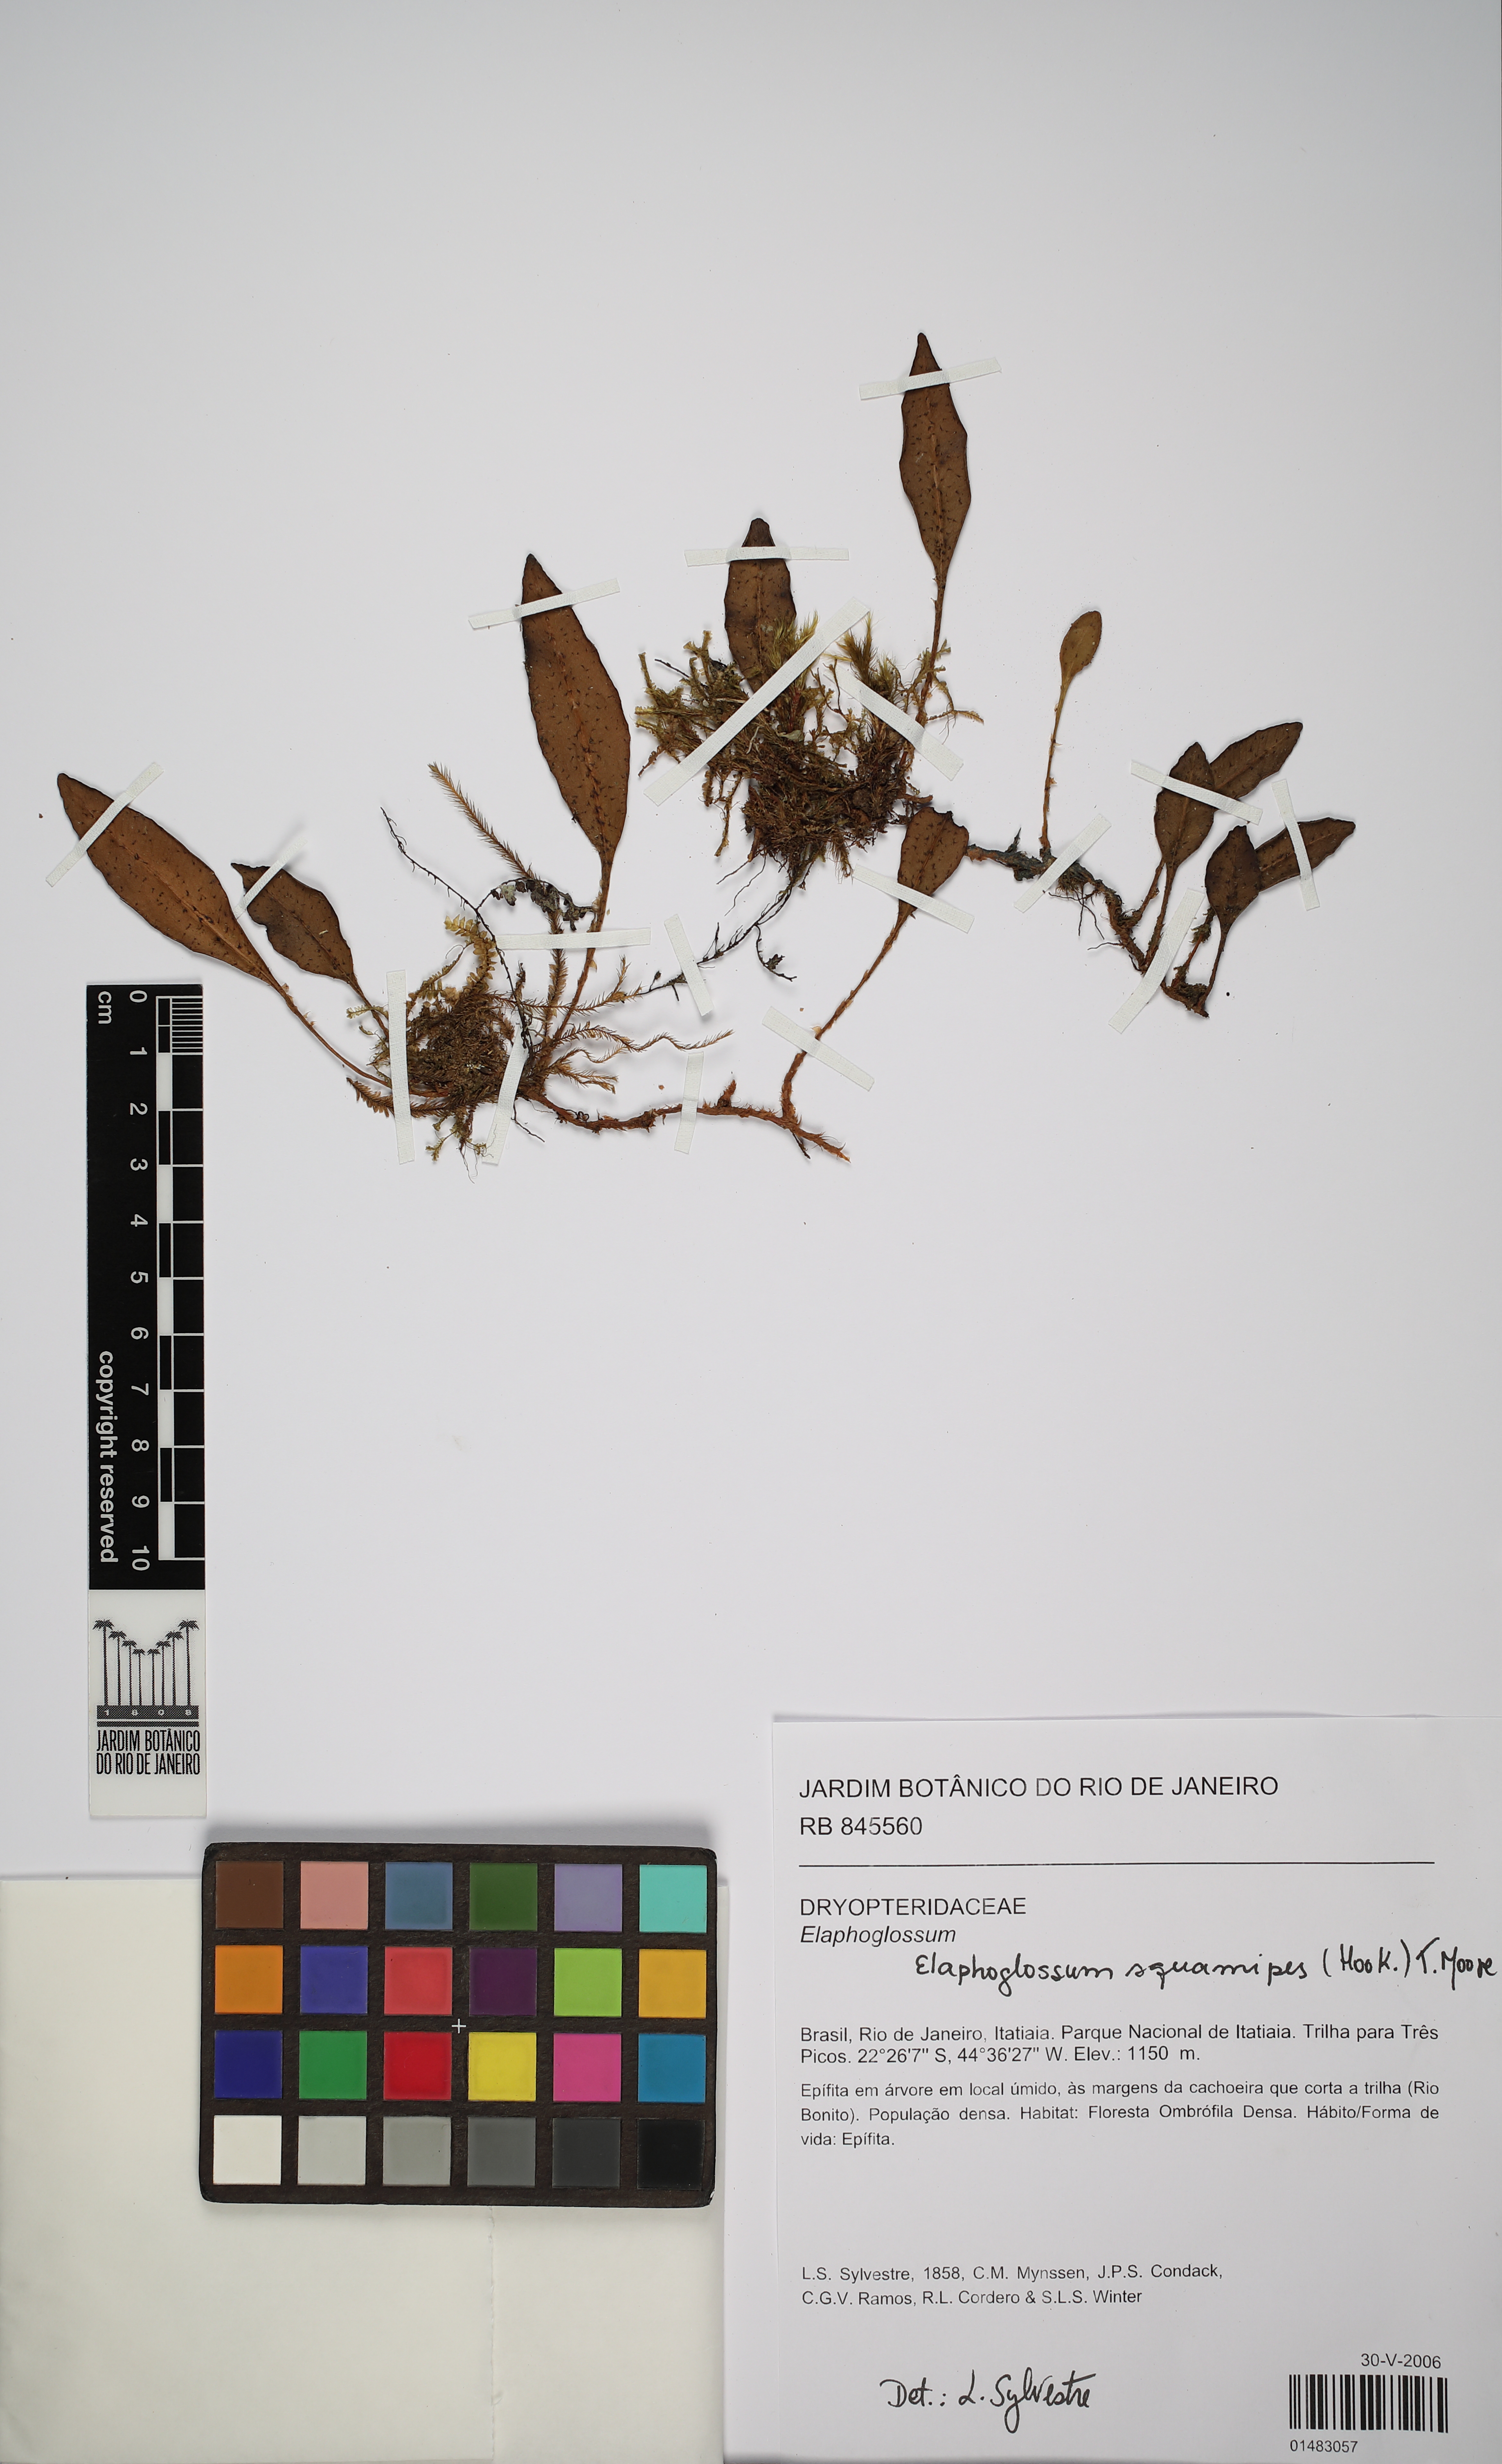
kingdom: Plantae
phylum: Tracheophyta
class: Polypodiopsida
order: Polypodiales
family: Dryopteridaceae
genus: Elaphoglossum
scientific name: Elaphoglossum squamipes
